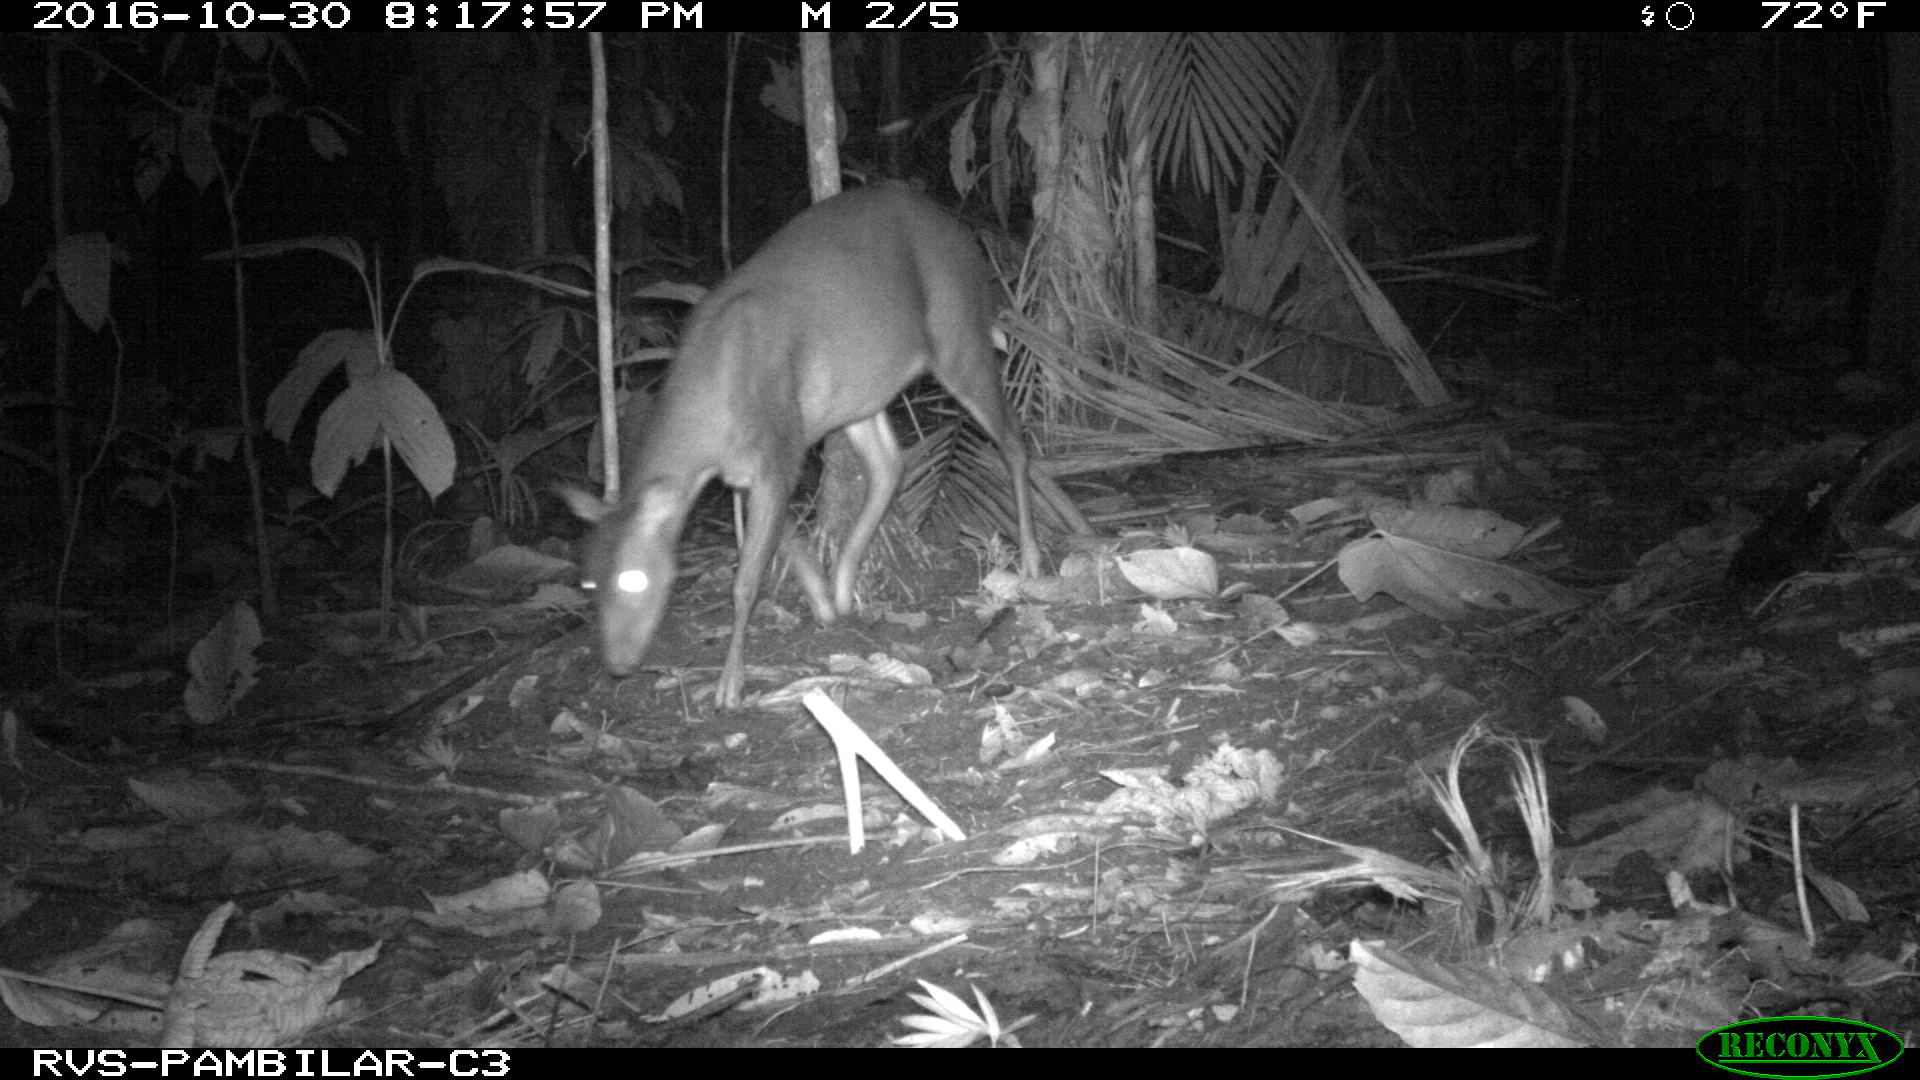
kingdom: Animalia
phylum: Chordata
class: Mammalia
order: Artiodactyla
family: Cervidae
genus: Mazama
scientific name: Mazama americana
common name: Red brocket
